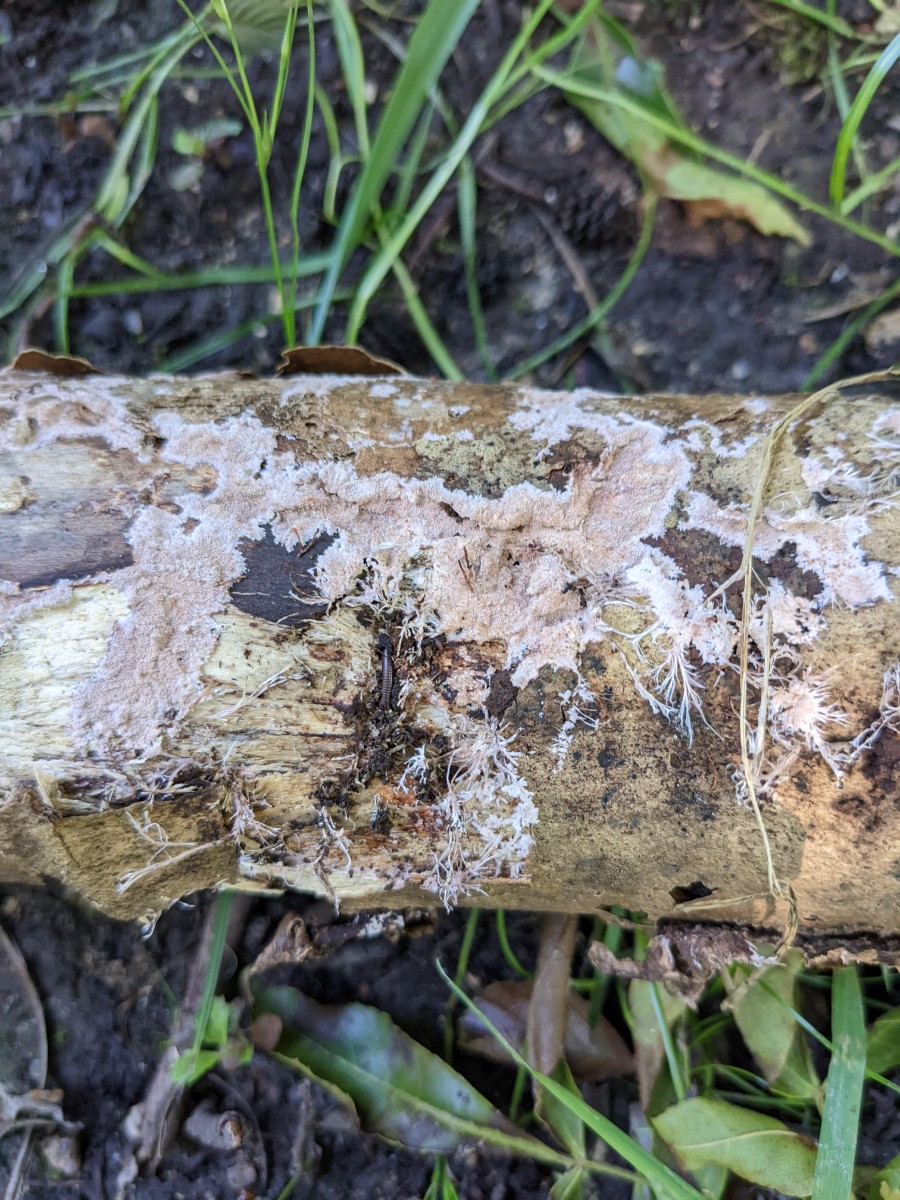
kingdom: Fungi
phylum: Basidiomycota
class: Agaricomycetes
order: Polyporales
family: Steccherinaceae
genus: Steccherinum
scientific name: Steccherinum fimbriatum
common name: trådet skønpig
